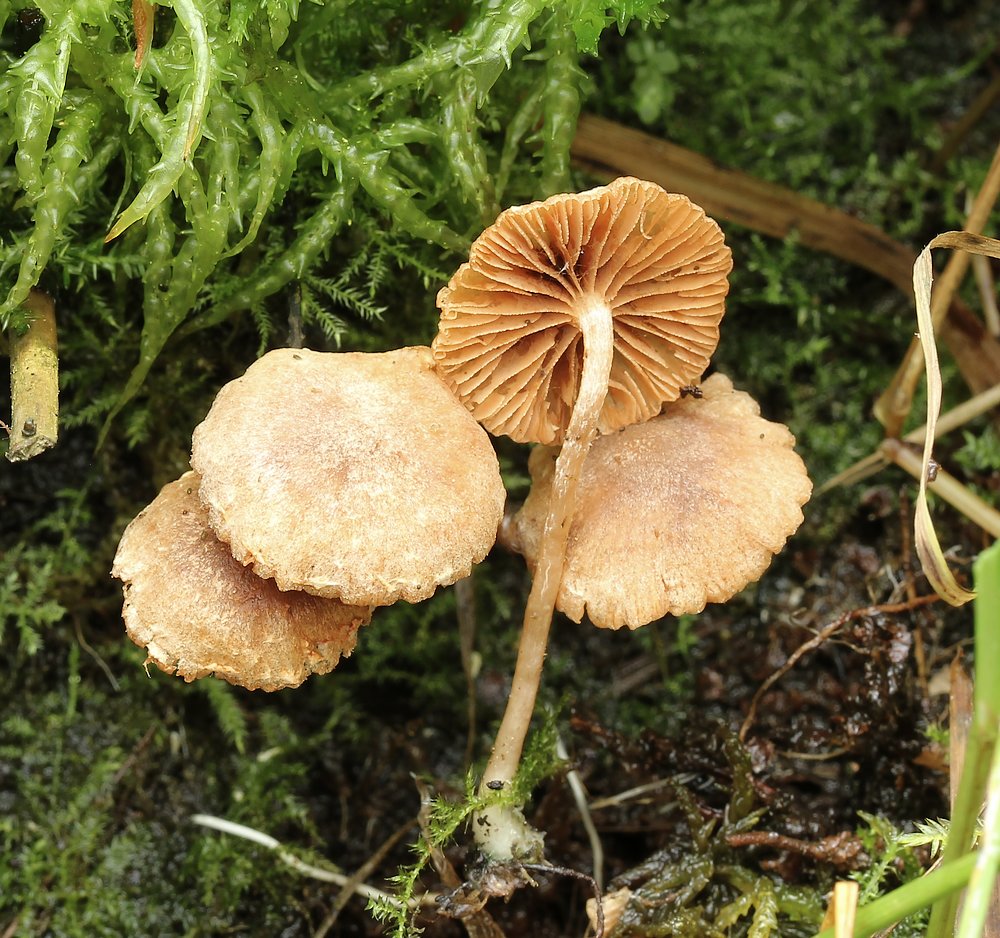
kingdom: Fungi
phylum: Basidiomycota
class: Agaricomycetes
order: Agaricales
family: Tubariaceae
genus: Tubaria
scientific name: Tubaria conspersa
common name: bleg fnughat
